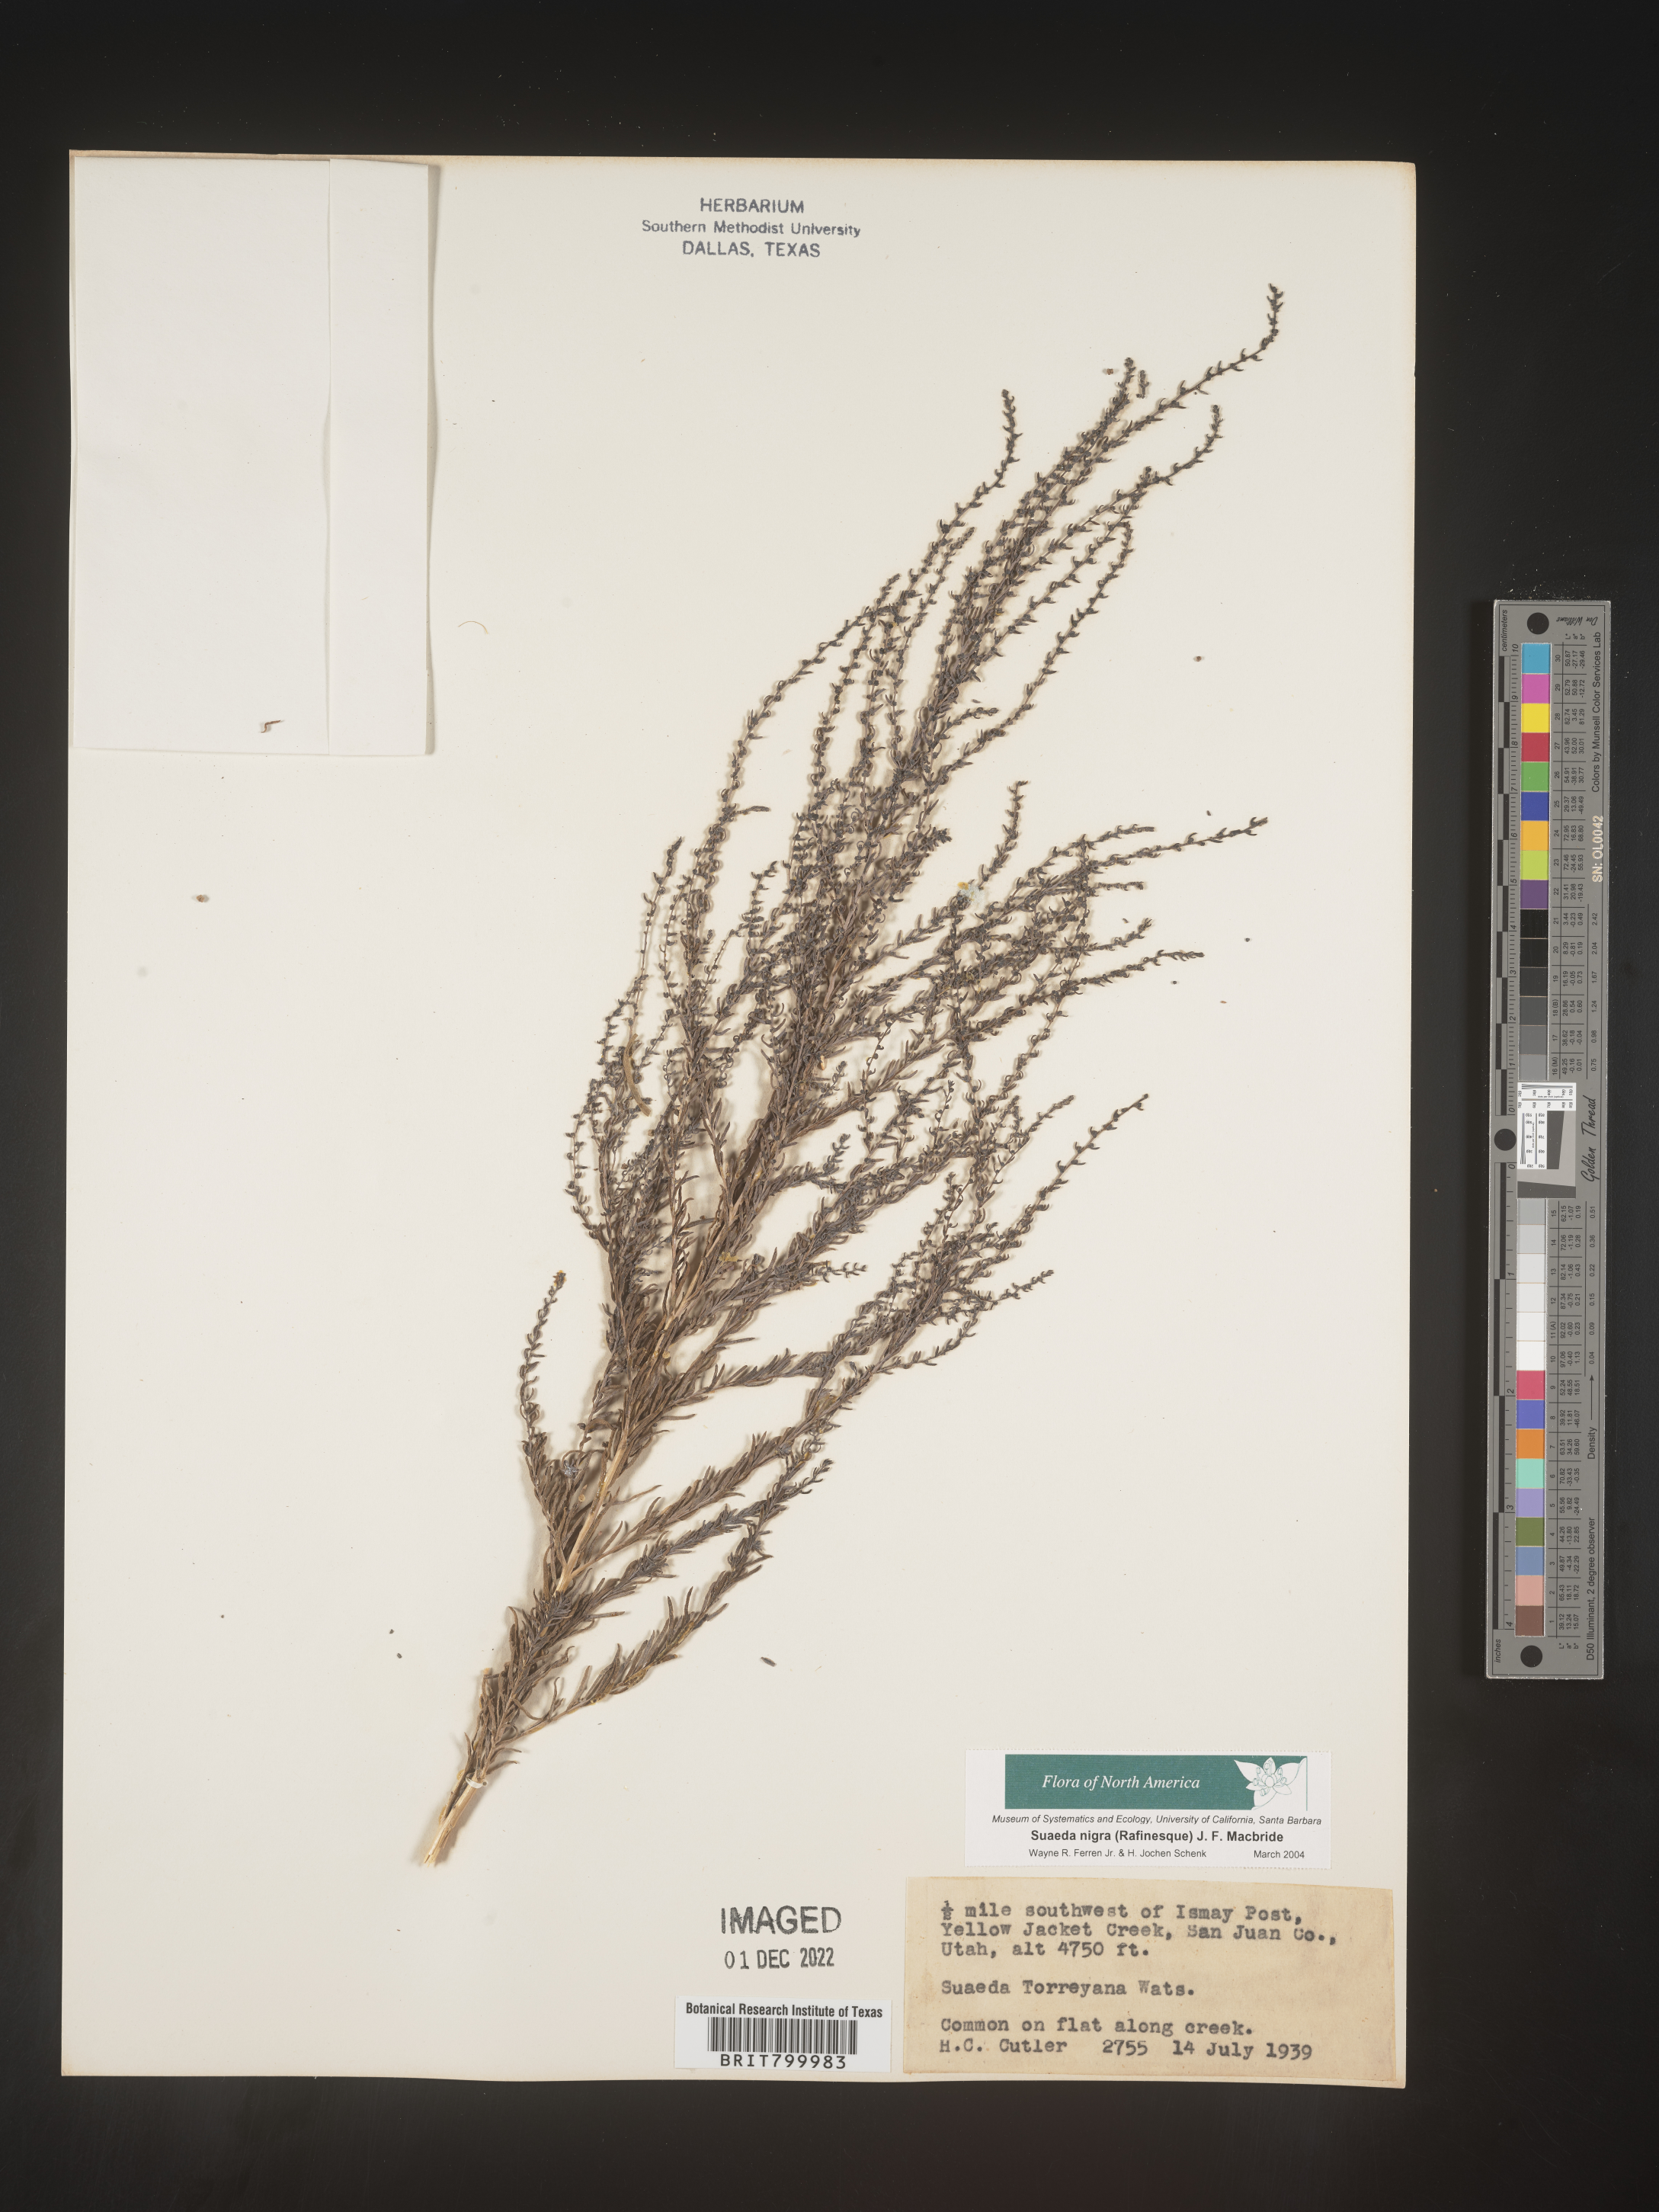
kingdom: Plantae
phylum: Tracheophyta
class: Magnoliopsida
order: Caryophyllales
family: Amaranthaceae
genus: Suaeda
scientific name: Suaeda nigra
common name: Bush seepweed
